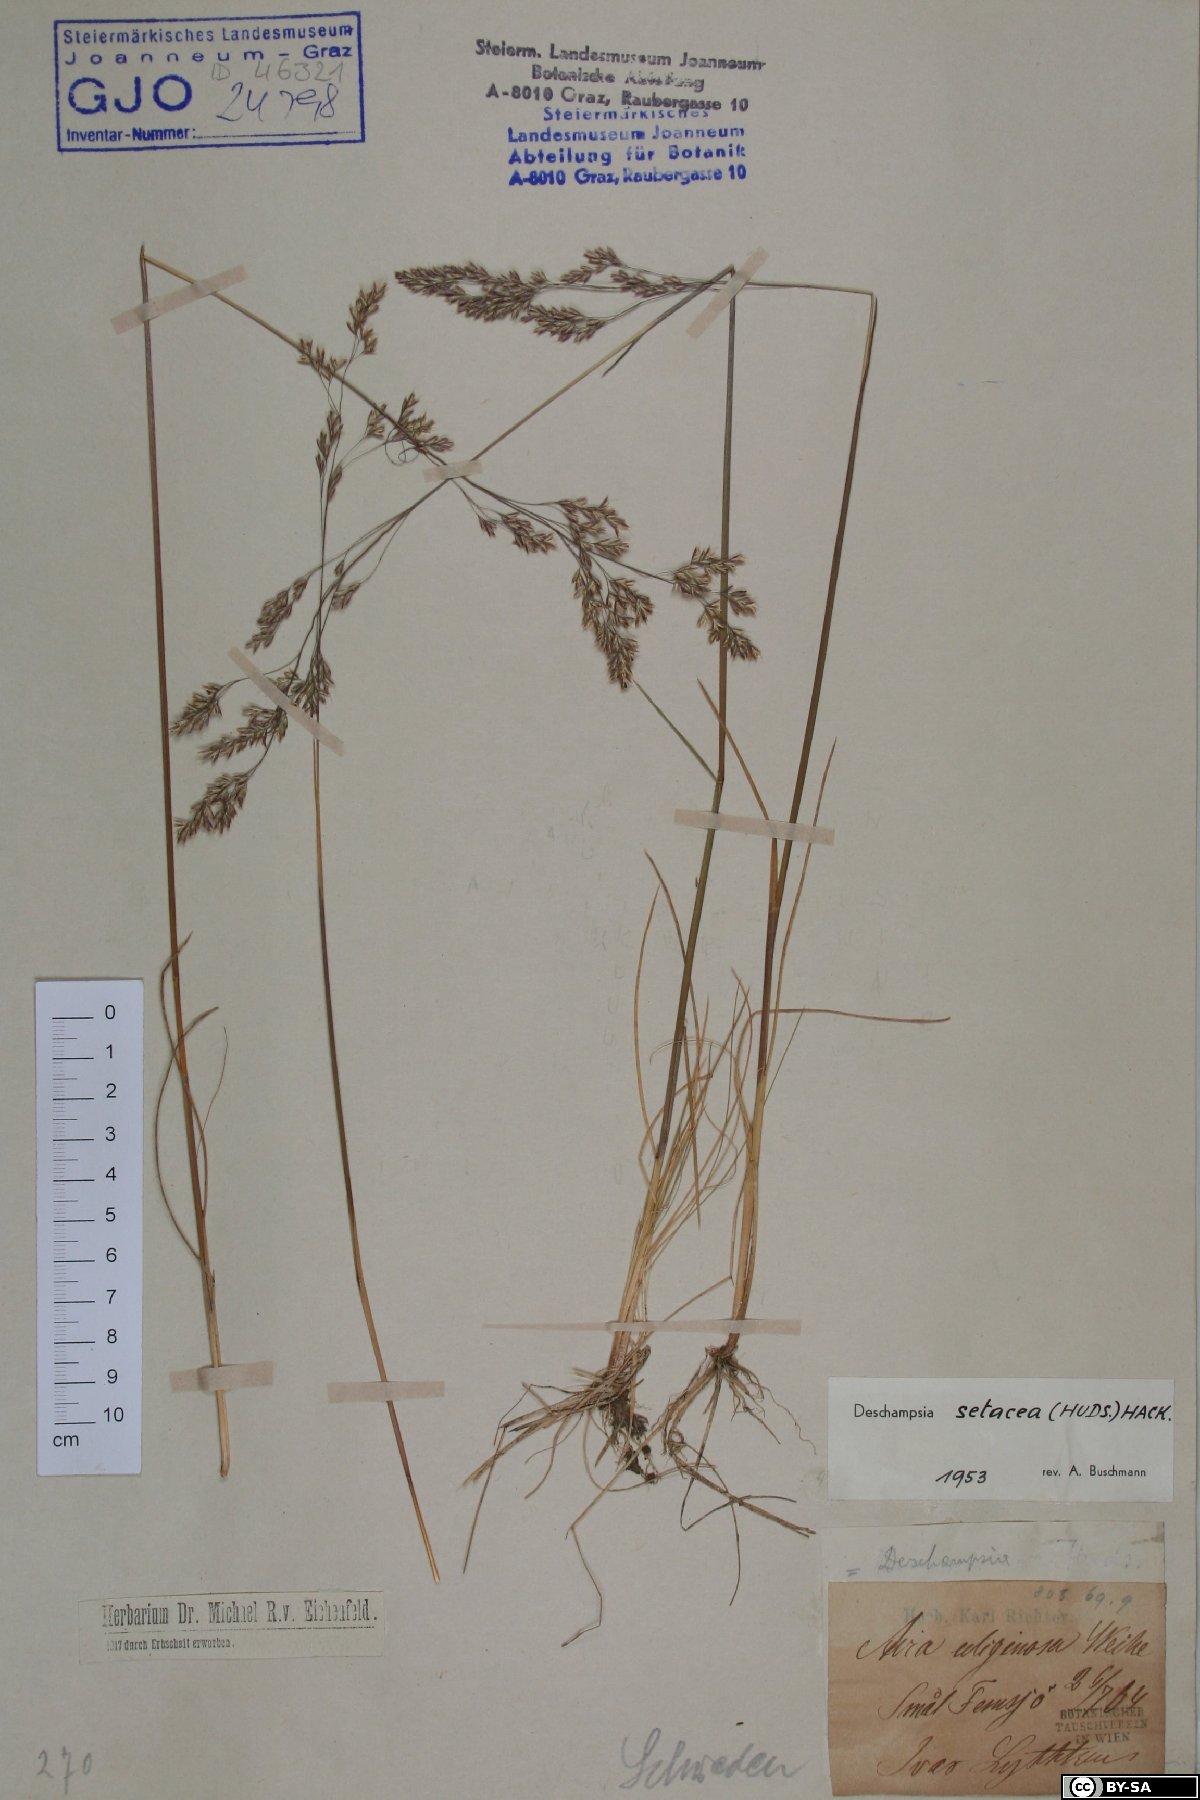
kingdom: Plantae
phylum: Tracheophyta
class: Liliopsida
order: Poales
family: Poaceae
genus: Deschampsia
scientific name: Deschampsia setacea
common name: Bog hair-grass
